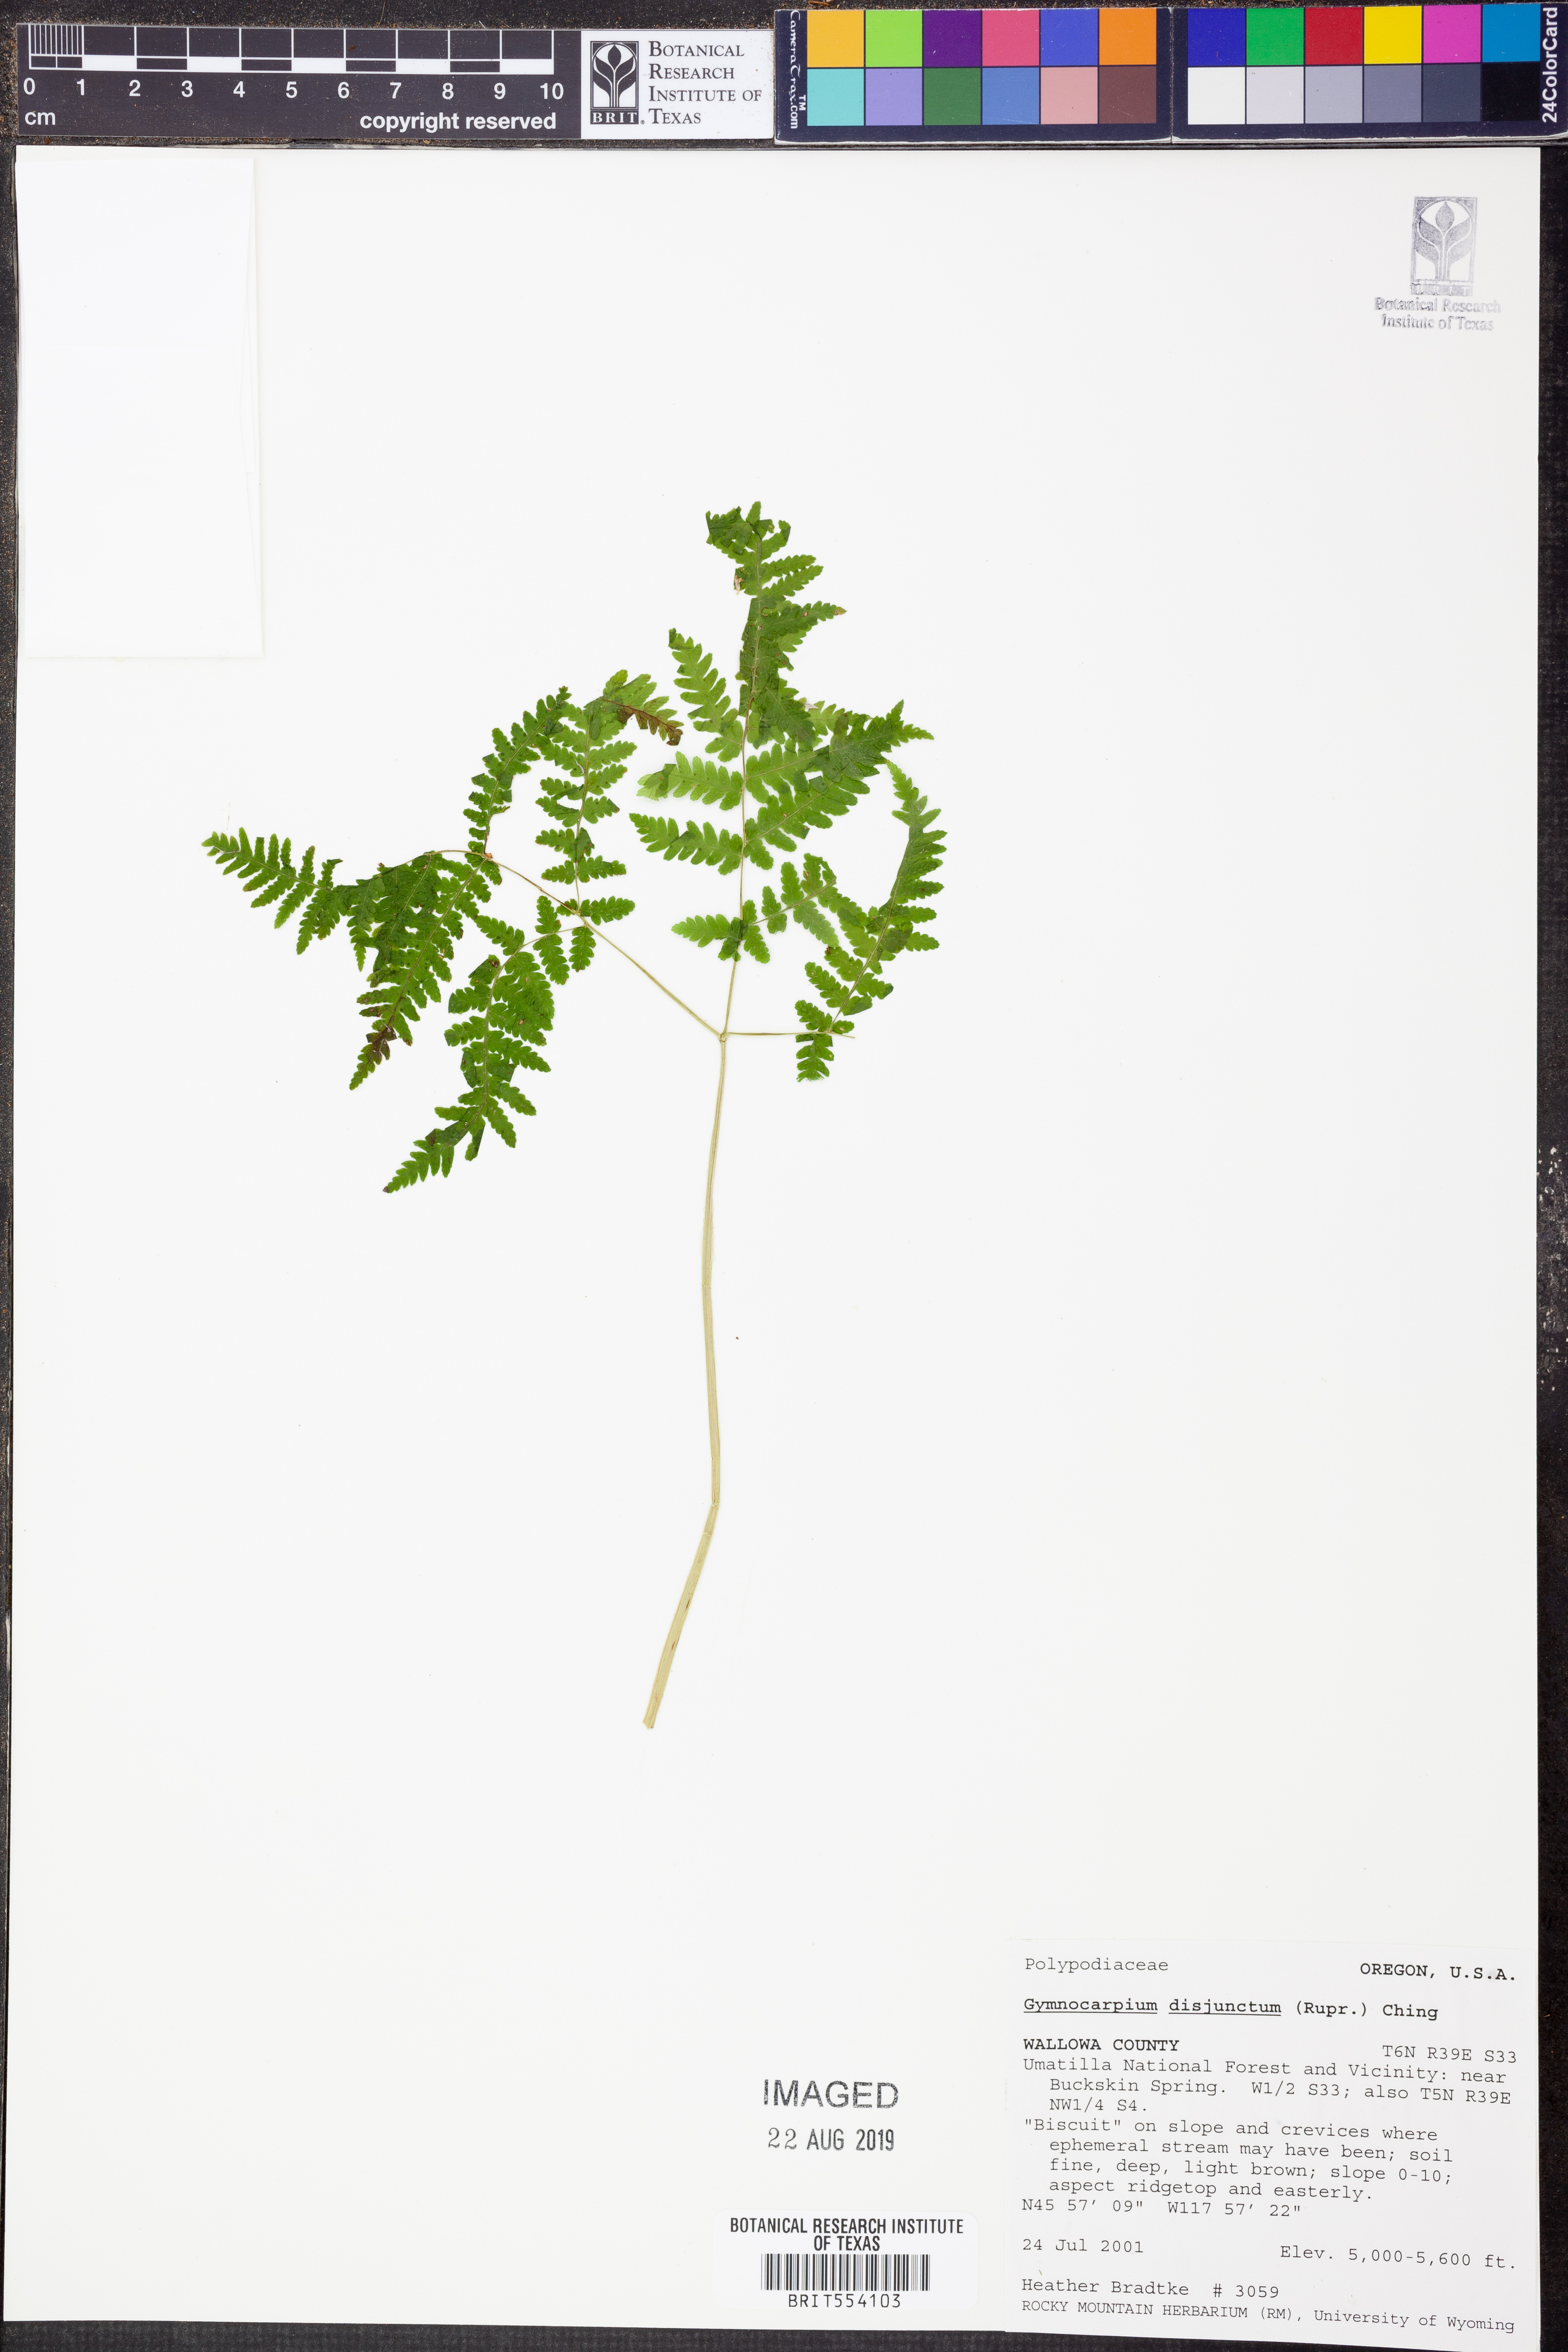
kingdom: Plantae
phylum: Tracheophyta
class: Polypodiopsida
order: Polypodiales
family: Cystopteridaceae
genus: Gymnocarpium
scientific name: Gymnocarpium disjunctum
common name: Western oak fern
